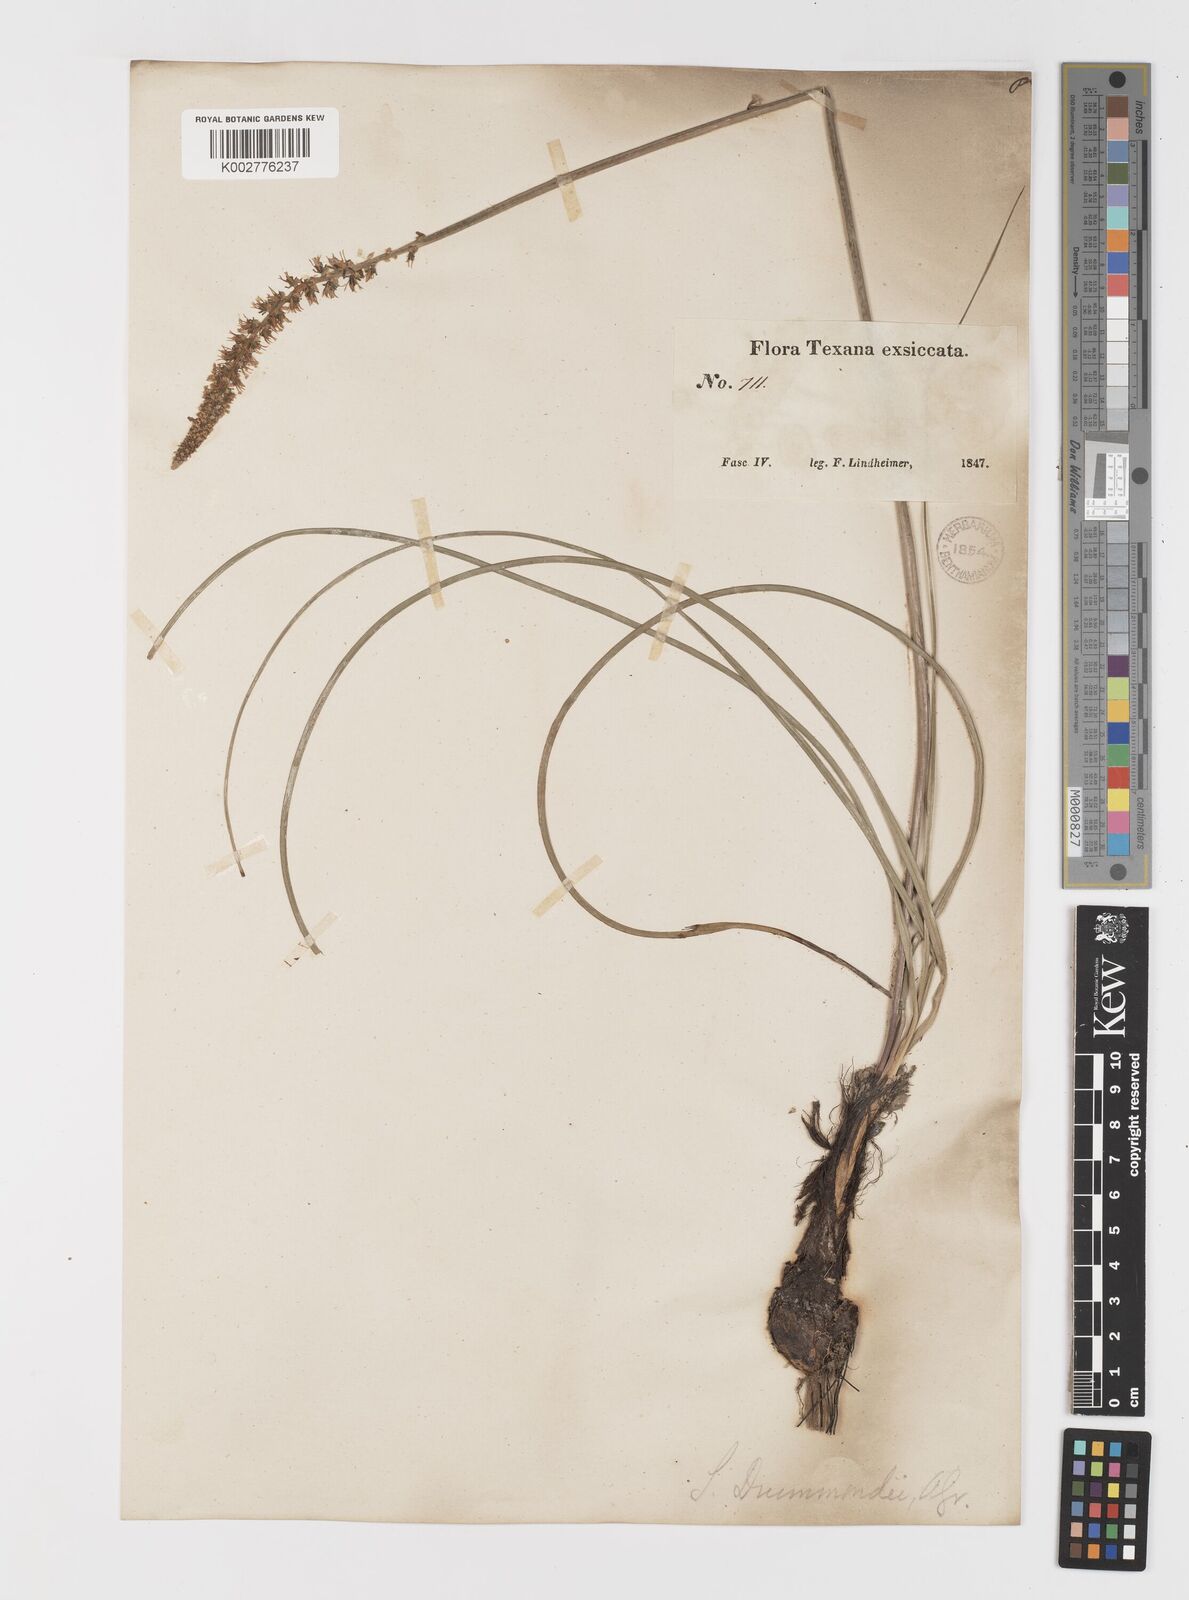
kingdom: Plantae
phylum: Tracheophyta
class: Liliopsida
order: Liliales
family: Melanthiaceae
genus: Schoenocaulon
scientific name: Schoenocaulon texanum
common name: Texas feather-shank
